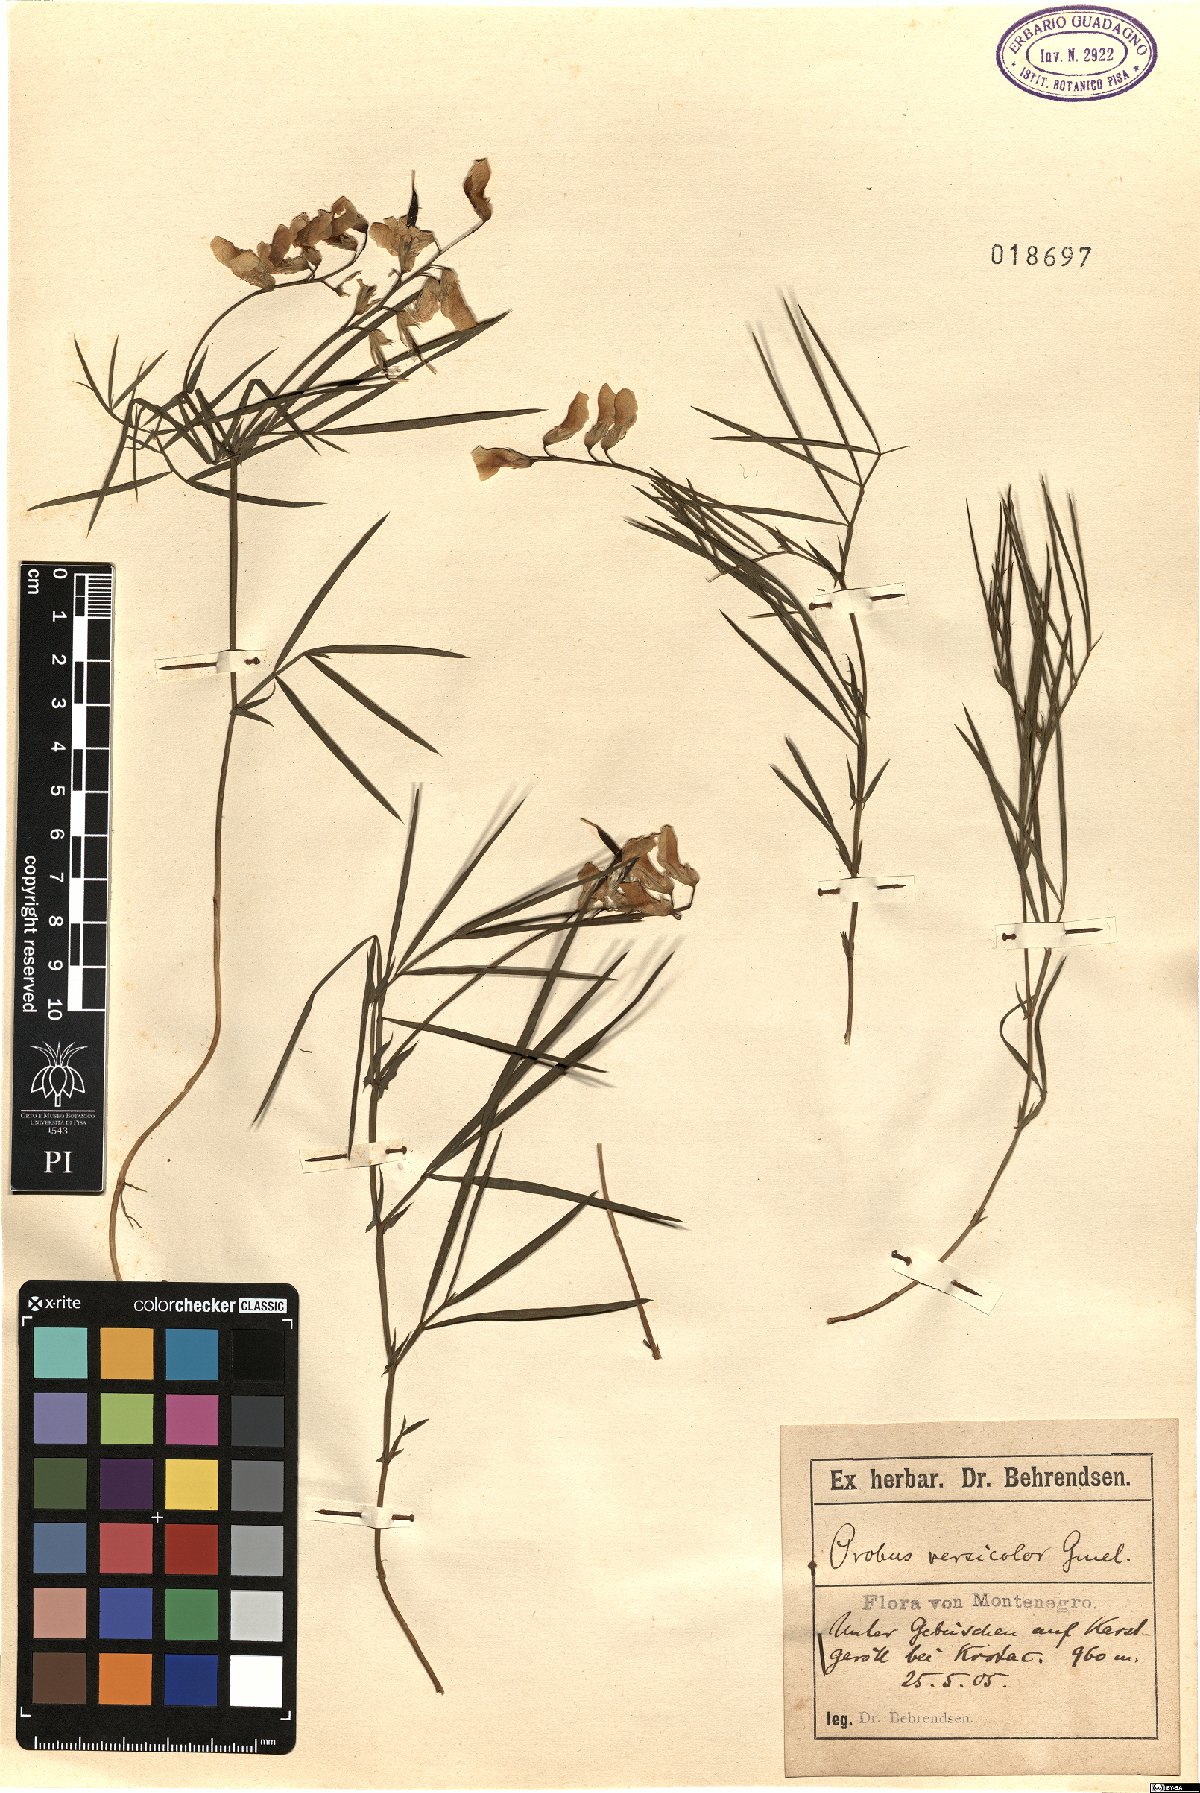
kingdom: Plantae
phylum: Tracheophyta
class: Magnoliopsida
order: Fabales
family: Fabaceae
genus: Lathyrus
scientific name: Lathyrus pannonicus
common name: Pea
